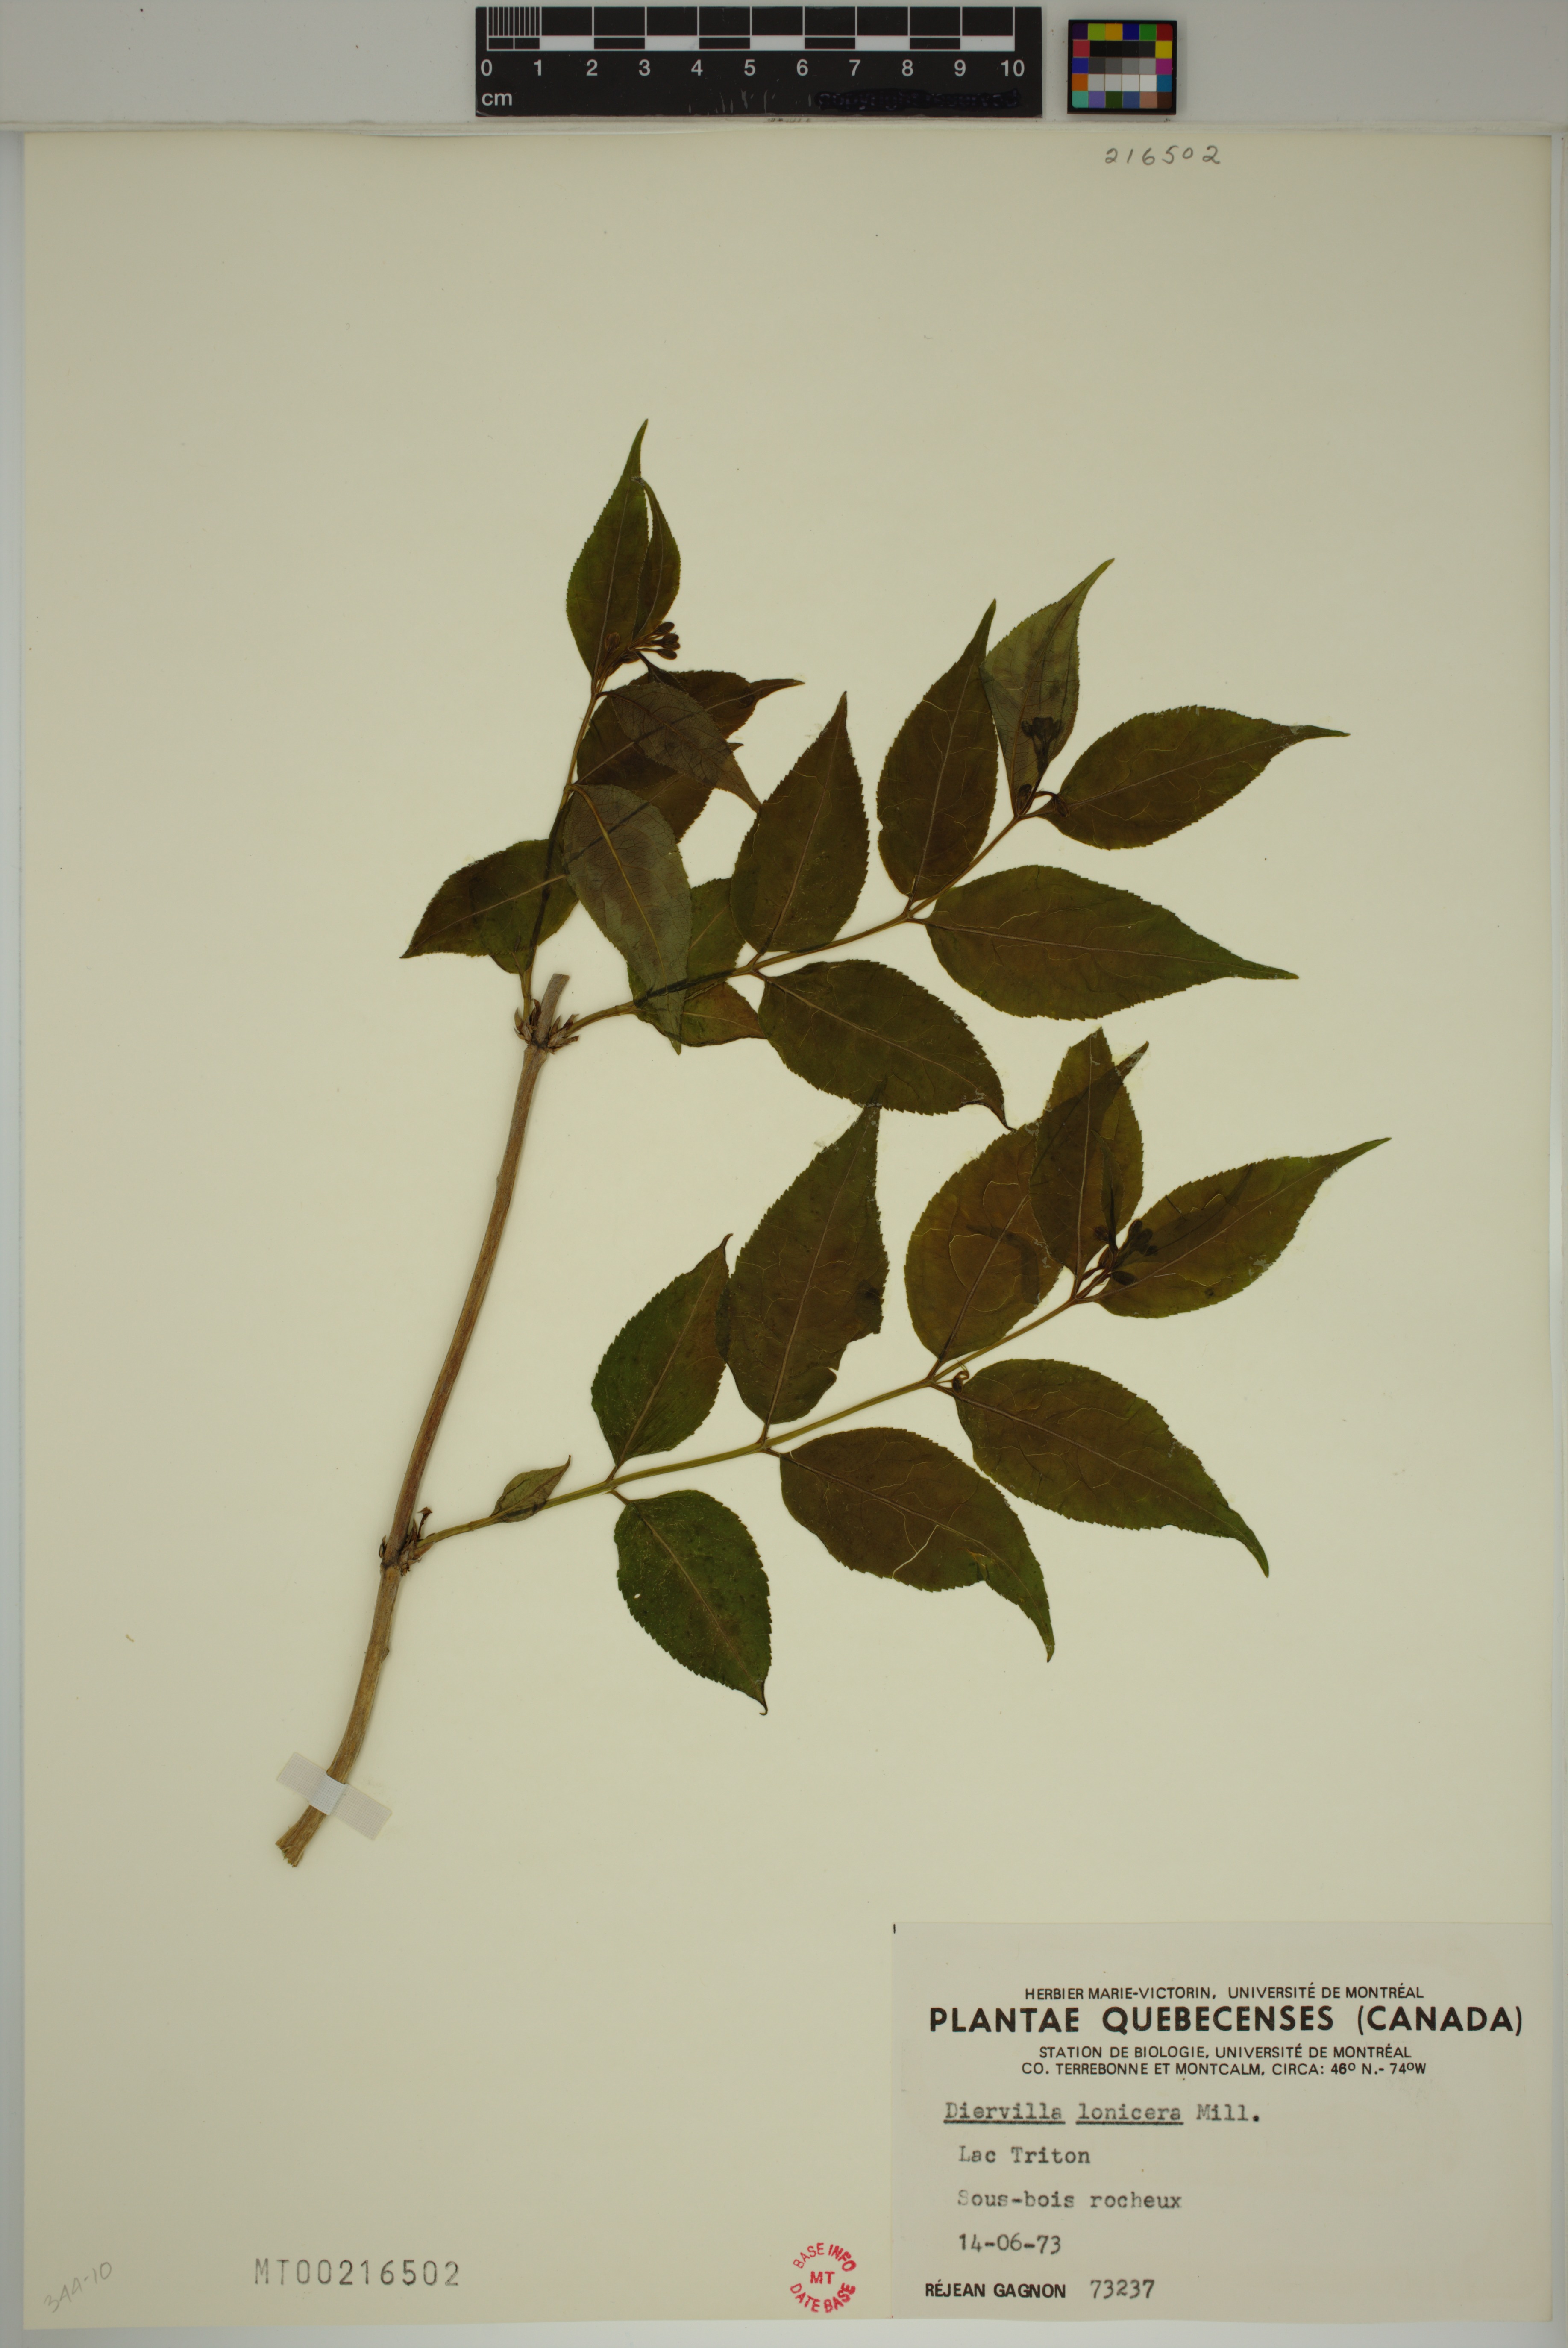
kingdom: Plantae
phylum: Tracheophyta
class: Magnoliopsida
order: Dipsacales
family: Caprifoliaceae
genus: Diervilla
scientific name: Diervilla lonicera
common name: Bush-honeysuckle
